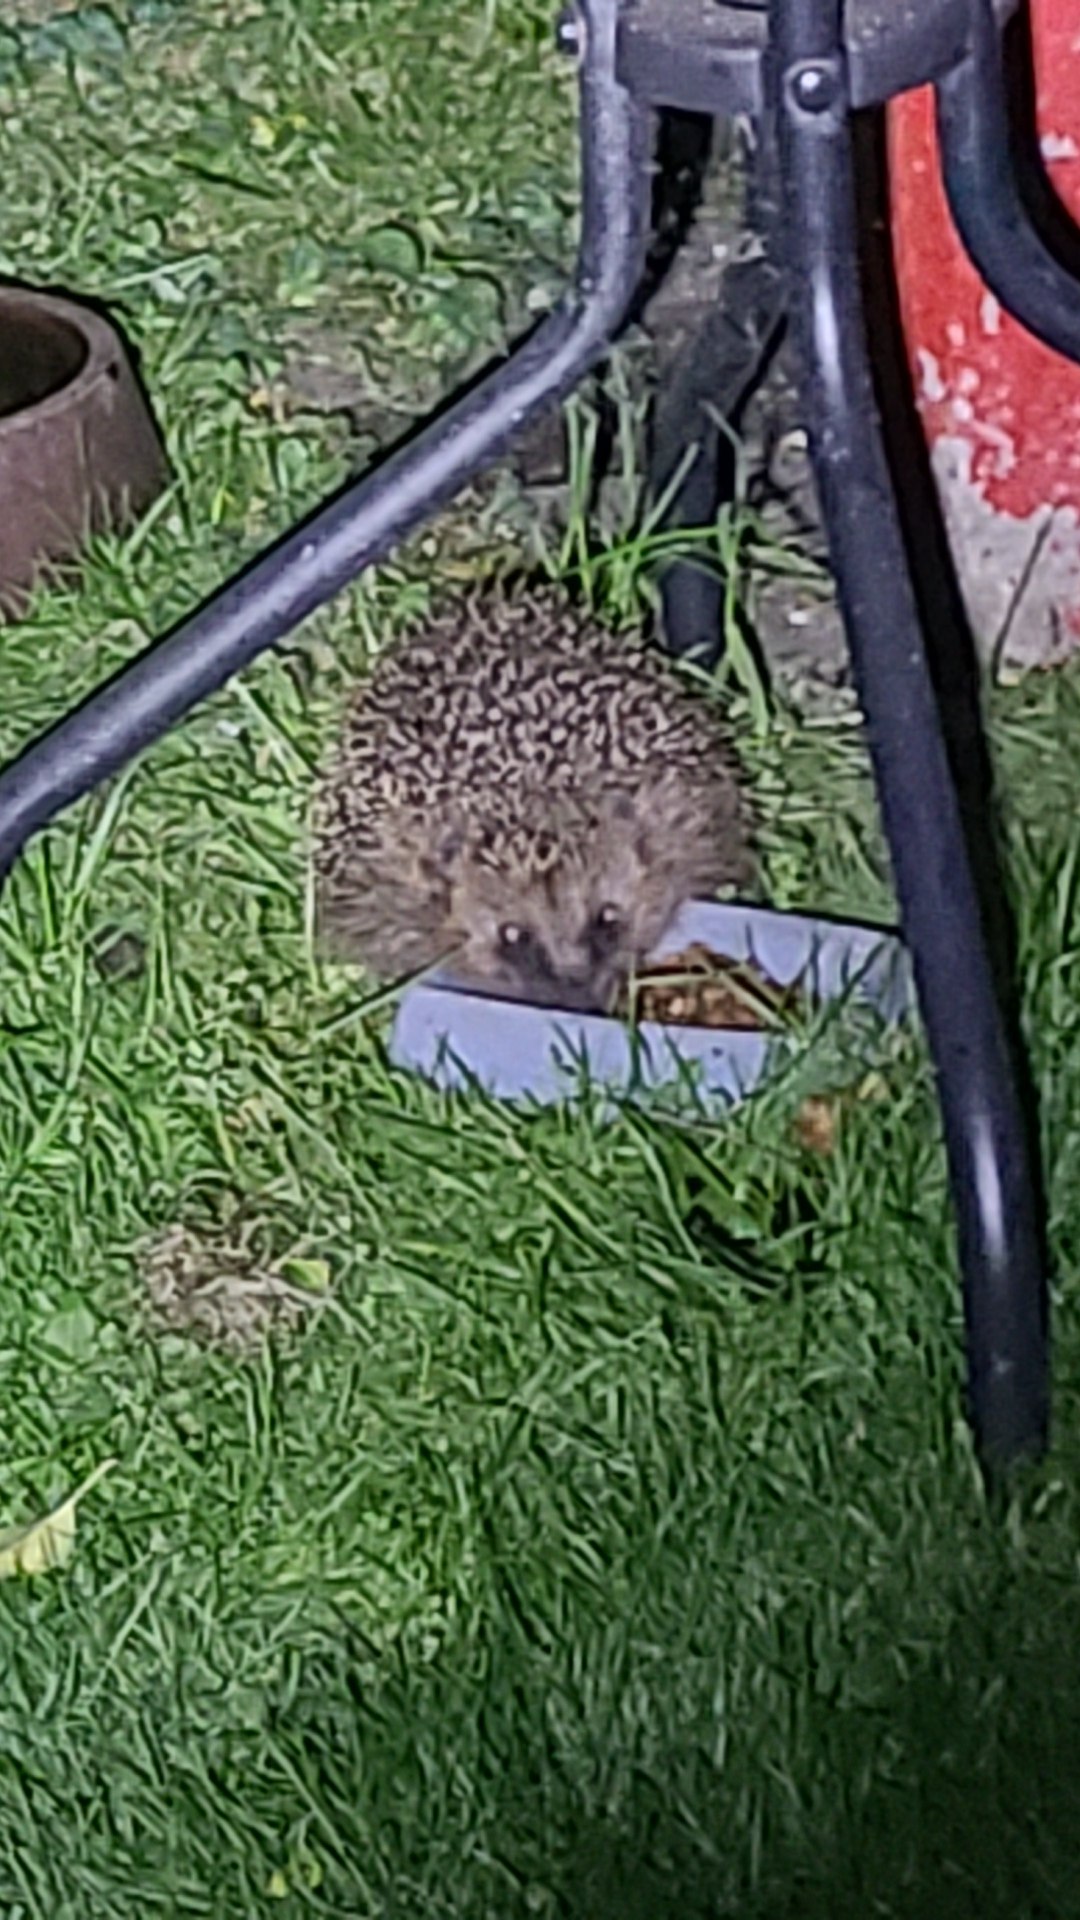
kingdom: Animalia
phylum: Chordata
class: Mammalia
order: Erinaceomorpha
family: Erinaceidae
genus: Erinaceus
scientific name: Erinaceus europaeus
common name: Pindsvin
